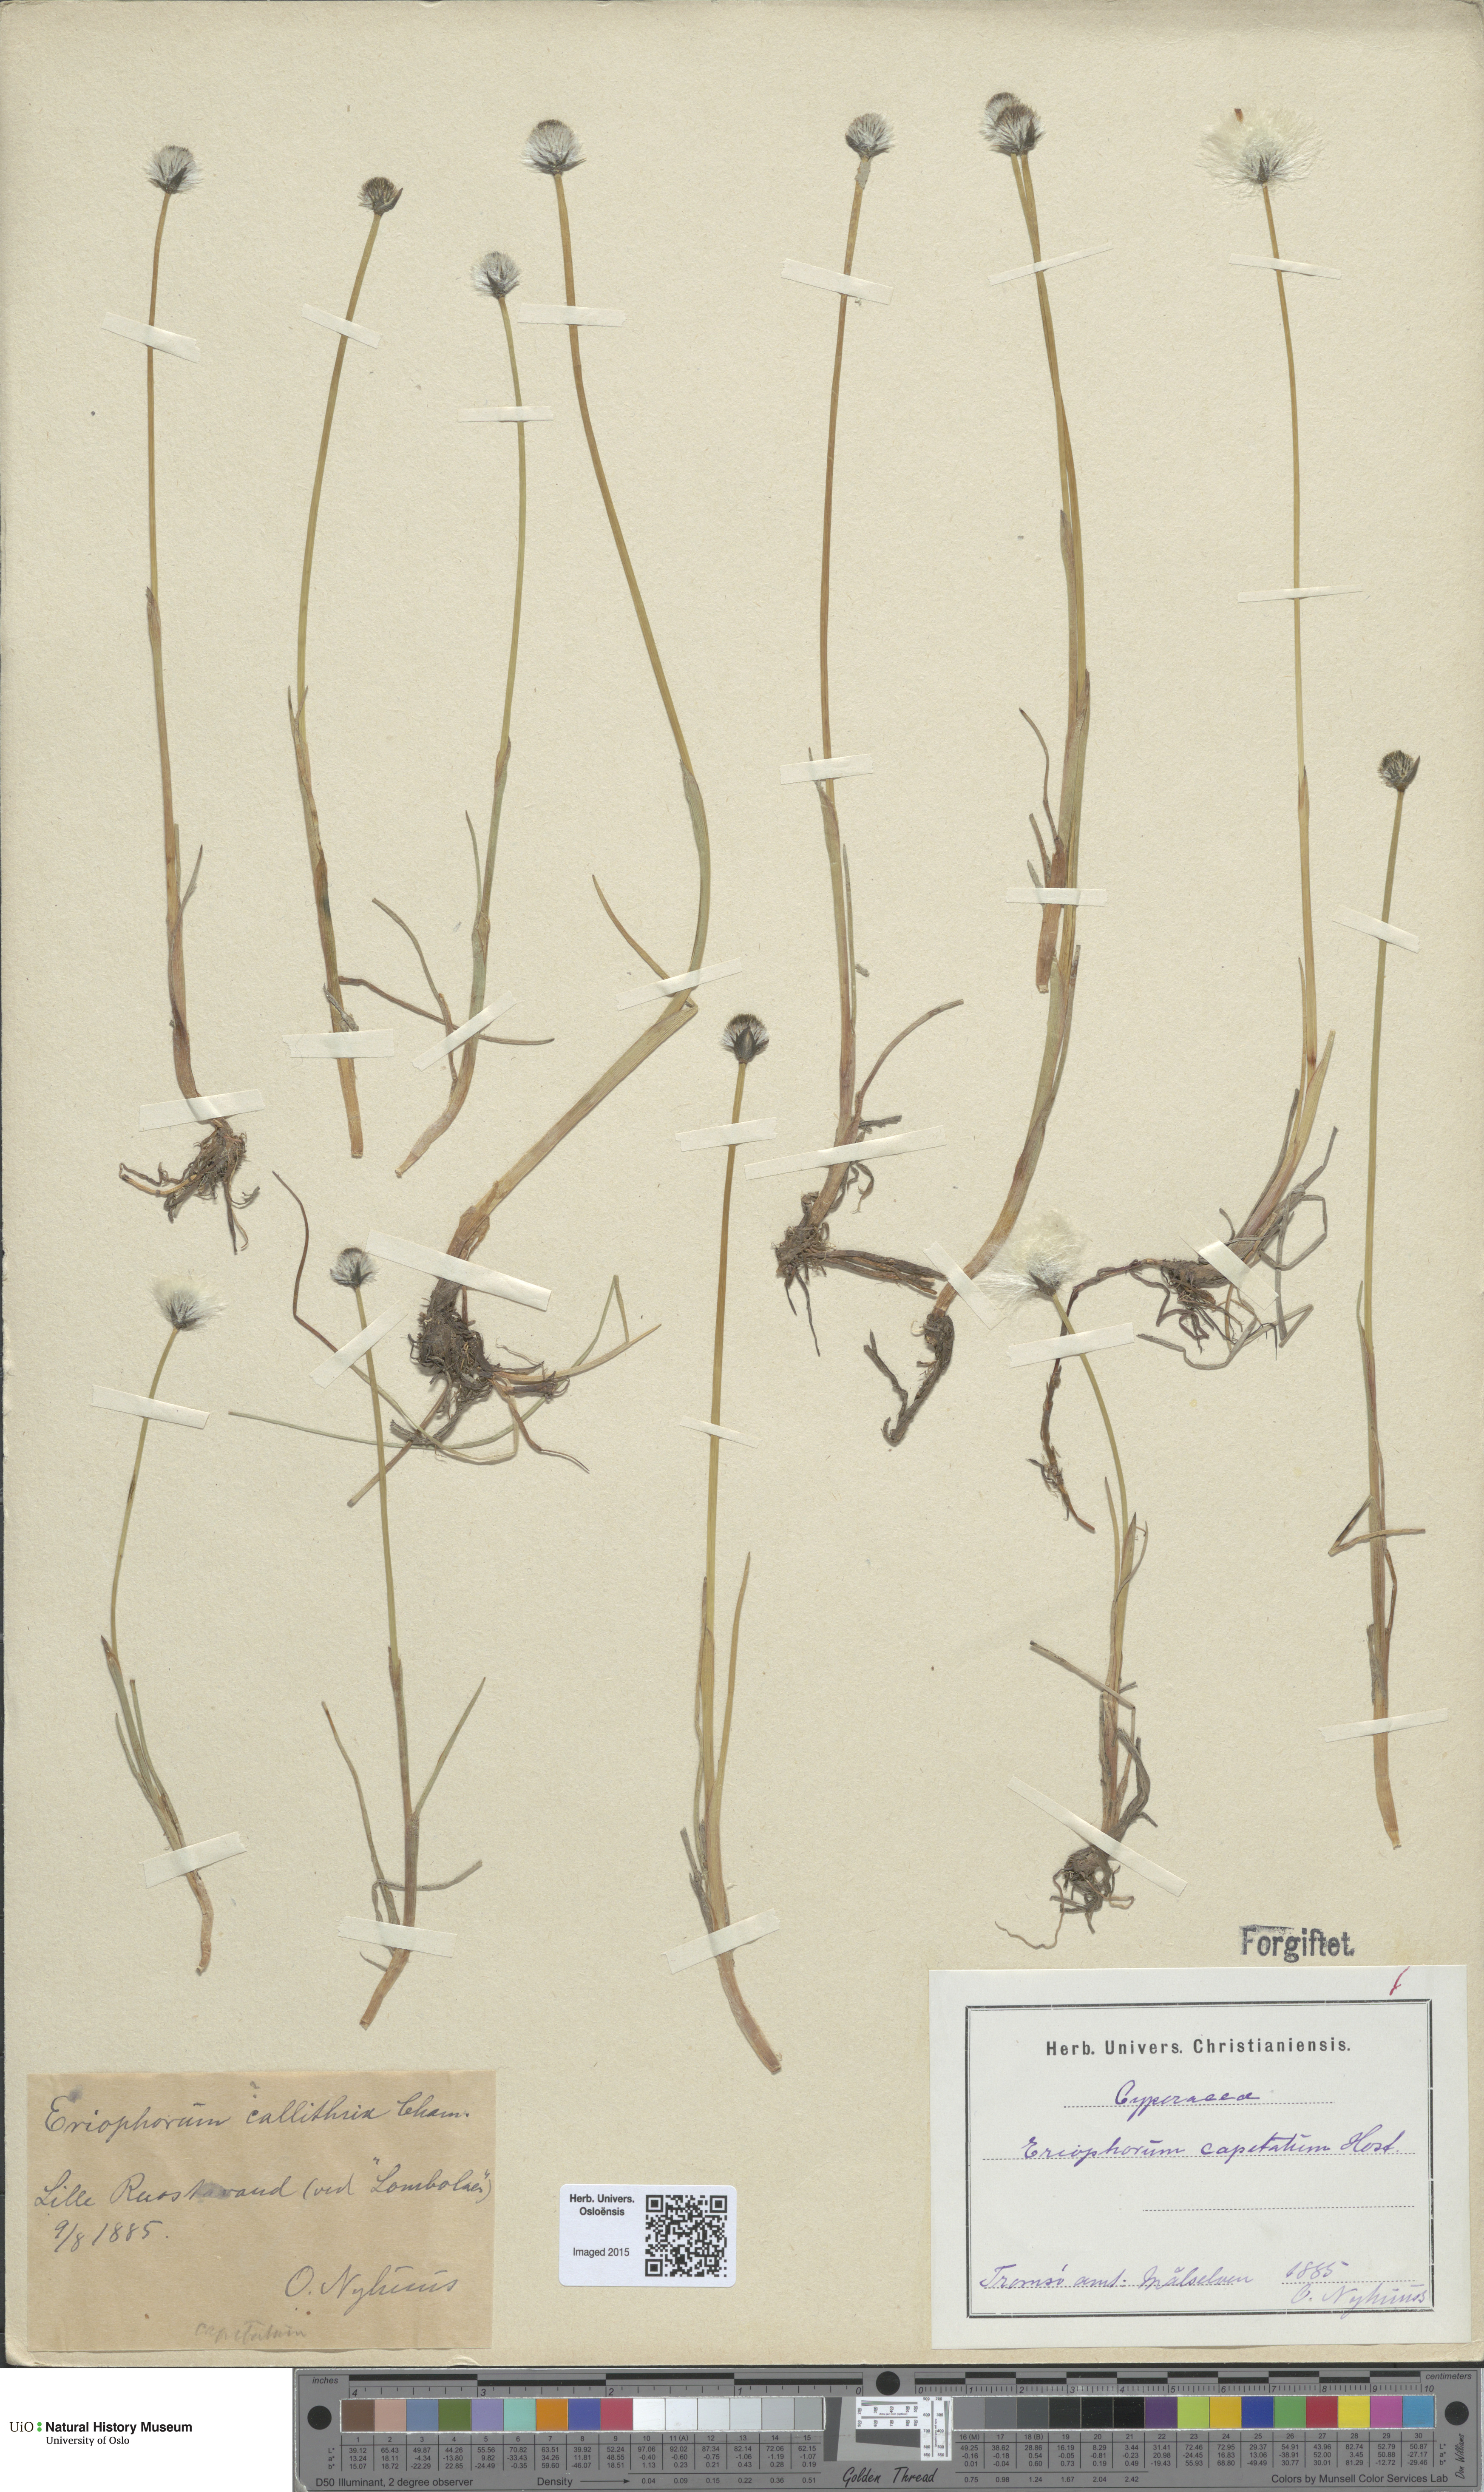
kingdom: Plantae
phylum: Tracheophyta
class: Liliopsida
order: Poales
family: Cyperaceae
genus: Eriophorum
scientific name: Eriophorum scheuchzeri
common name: Scheuchzer's cottongrass
